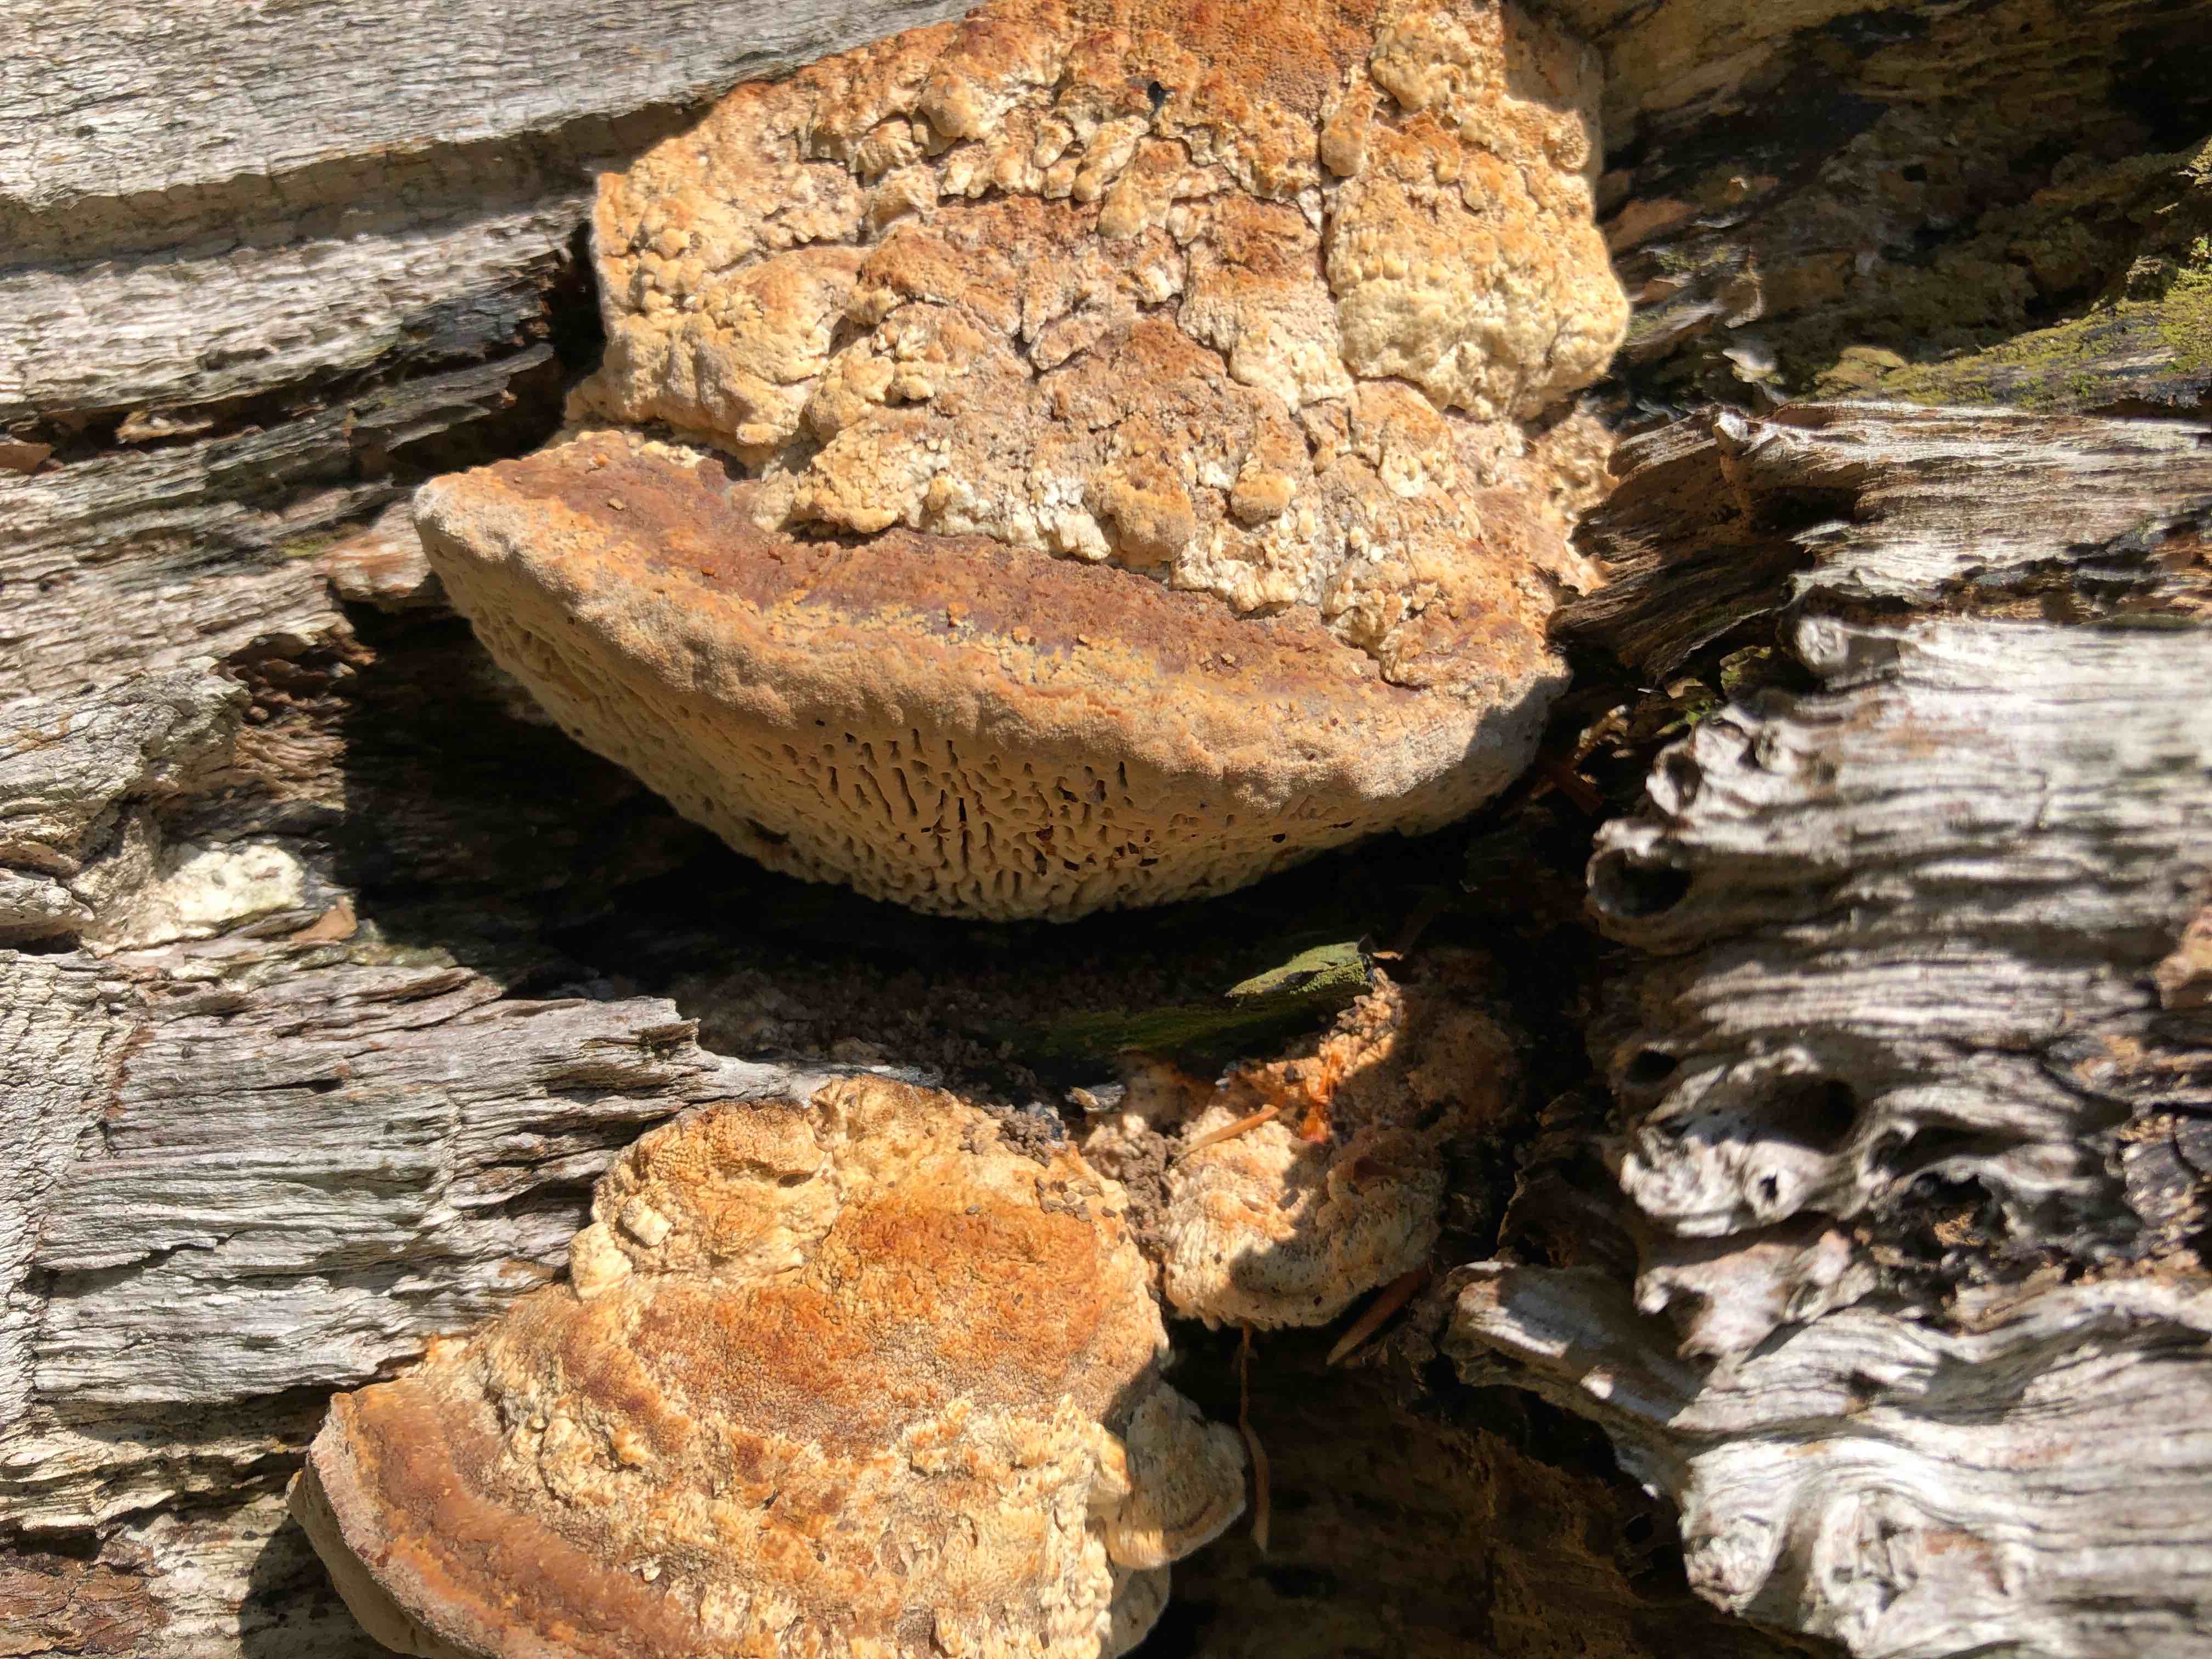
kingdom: Fungi
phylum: Basidiomycota
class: Agaricomycetes
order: Polyporales
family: Fomitopsidaceae
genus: Daedalea
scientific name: Daedalea quercina
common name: ege-labyrintsvamp
